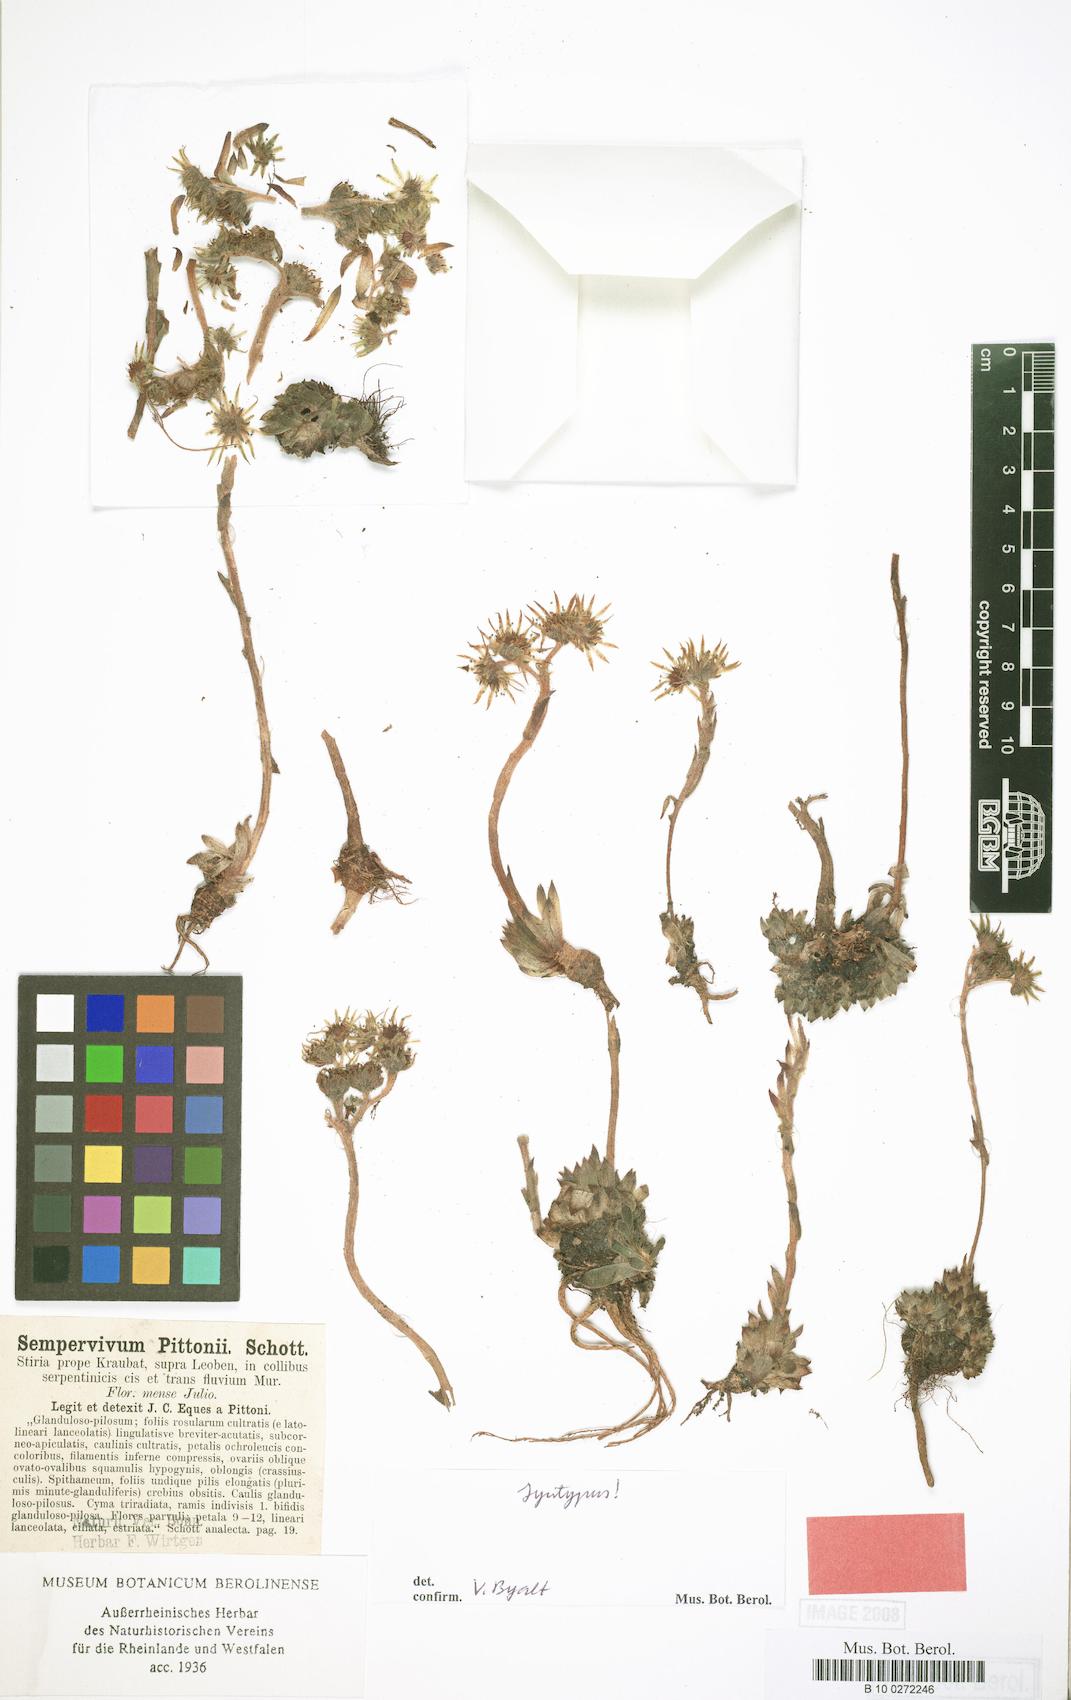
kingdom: Plantae
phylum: Tracheophyta
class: Magnoliopsida
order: Saxifragales
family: Crassulaceae
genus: Sempervivum
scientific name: Sempervivum pittonii
